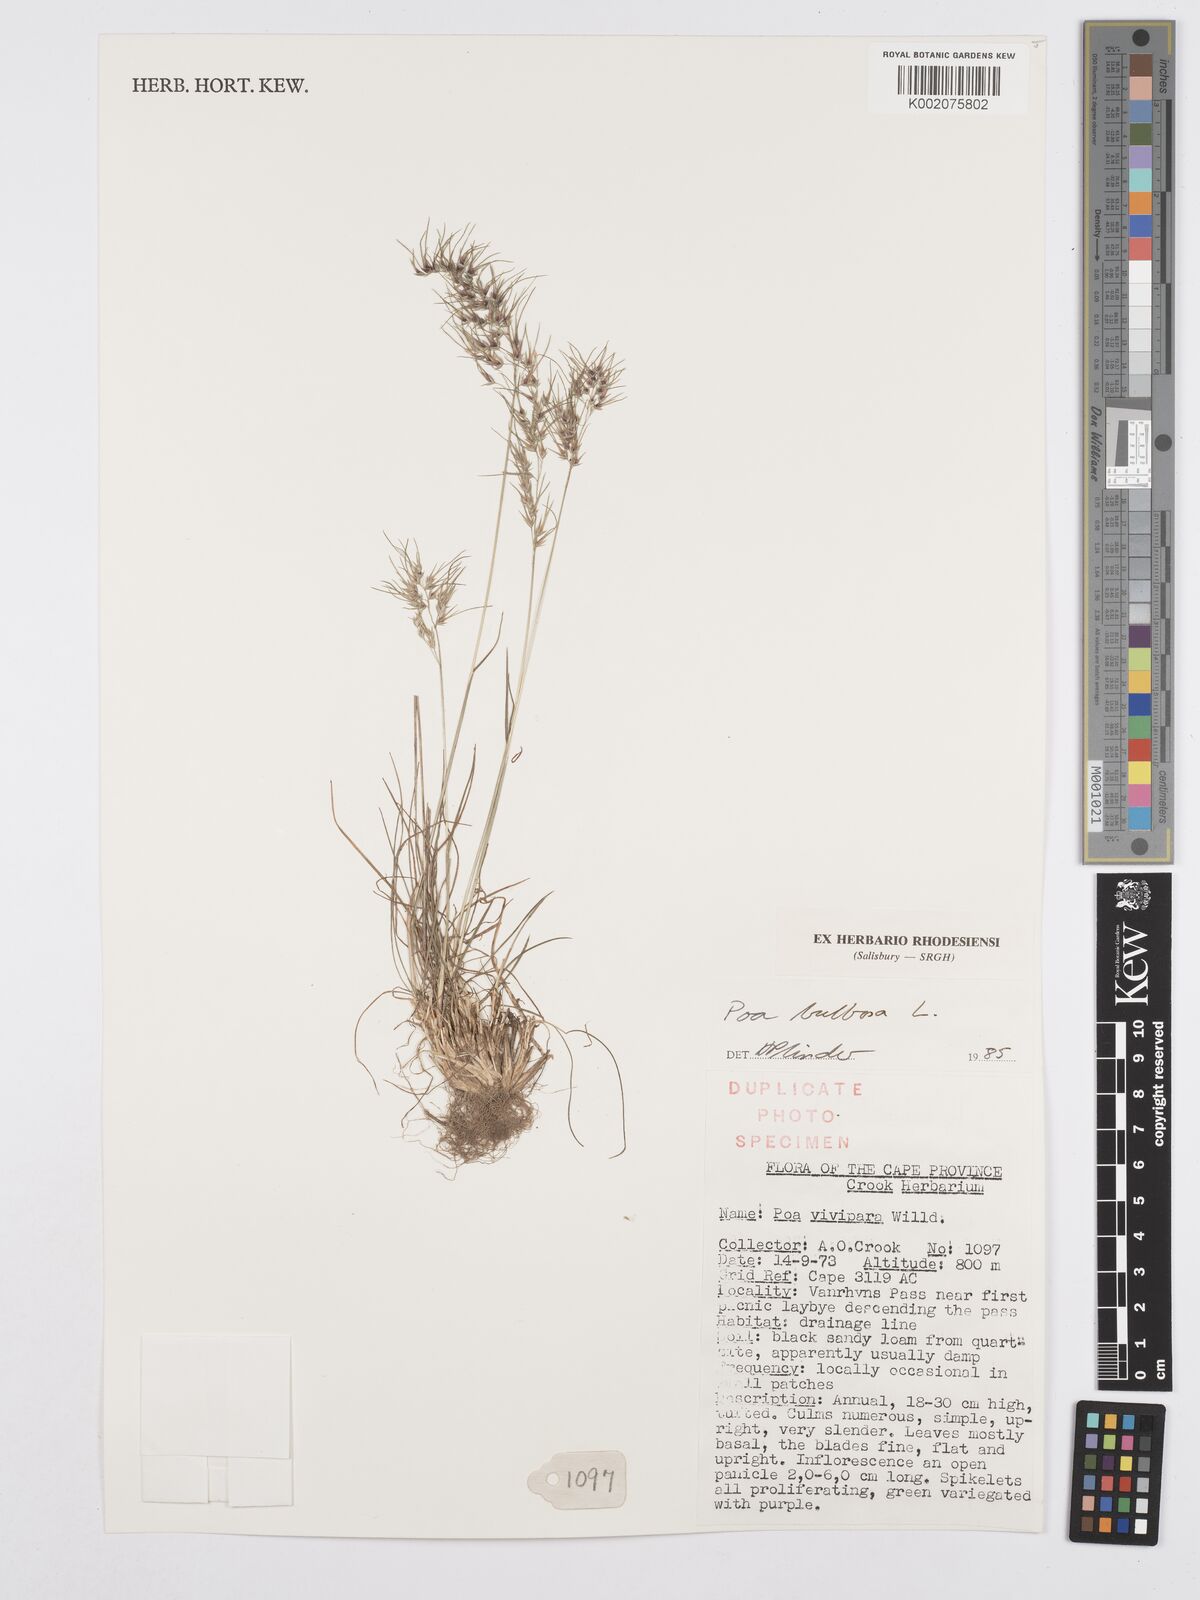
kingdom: Plantae
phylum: Tracheophyta
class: Liliopsida
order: Poales
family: Poaceae
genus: Poa
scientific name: Poa bulbosa
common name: Bulbous bluegrass
